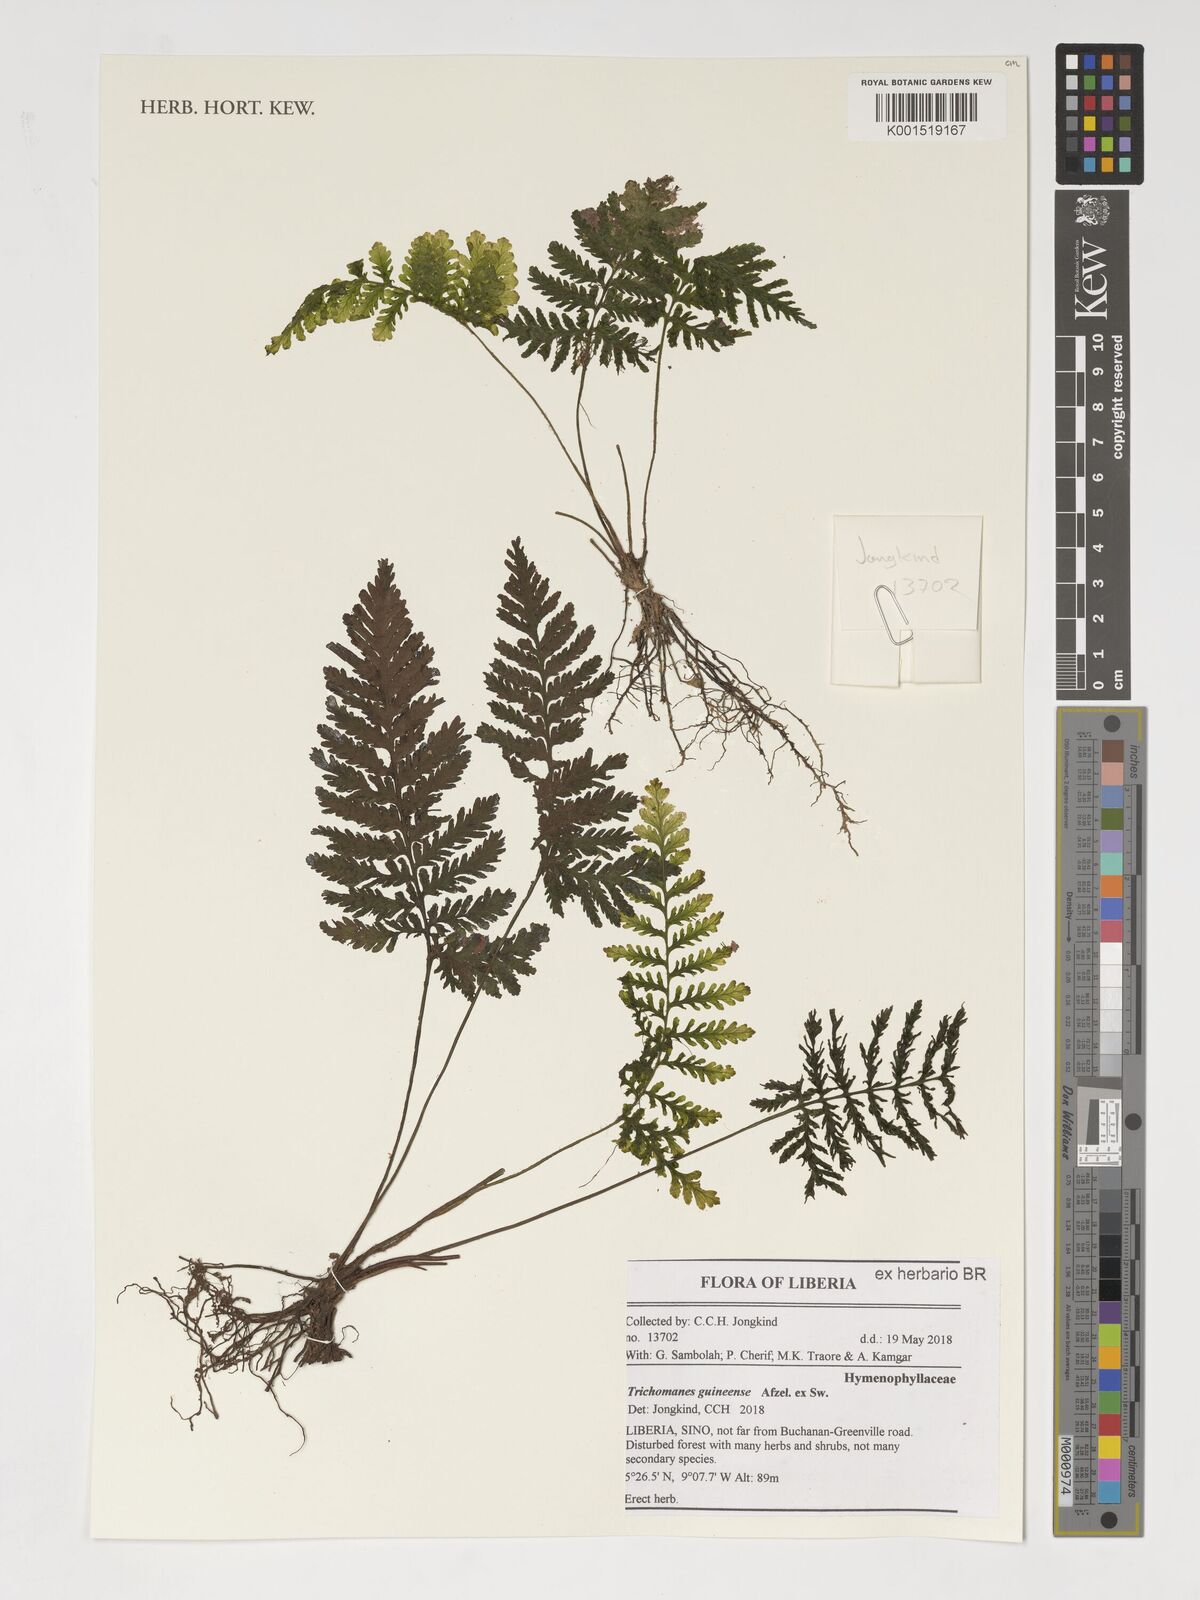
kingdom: Plantae
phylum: Tracheophyta
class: Polypodiopsida
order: Hymenophyllales
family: Hymenophyllaceae
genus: Abrodictyum
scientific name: Abrodictyum guineense
